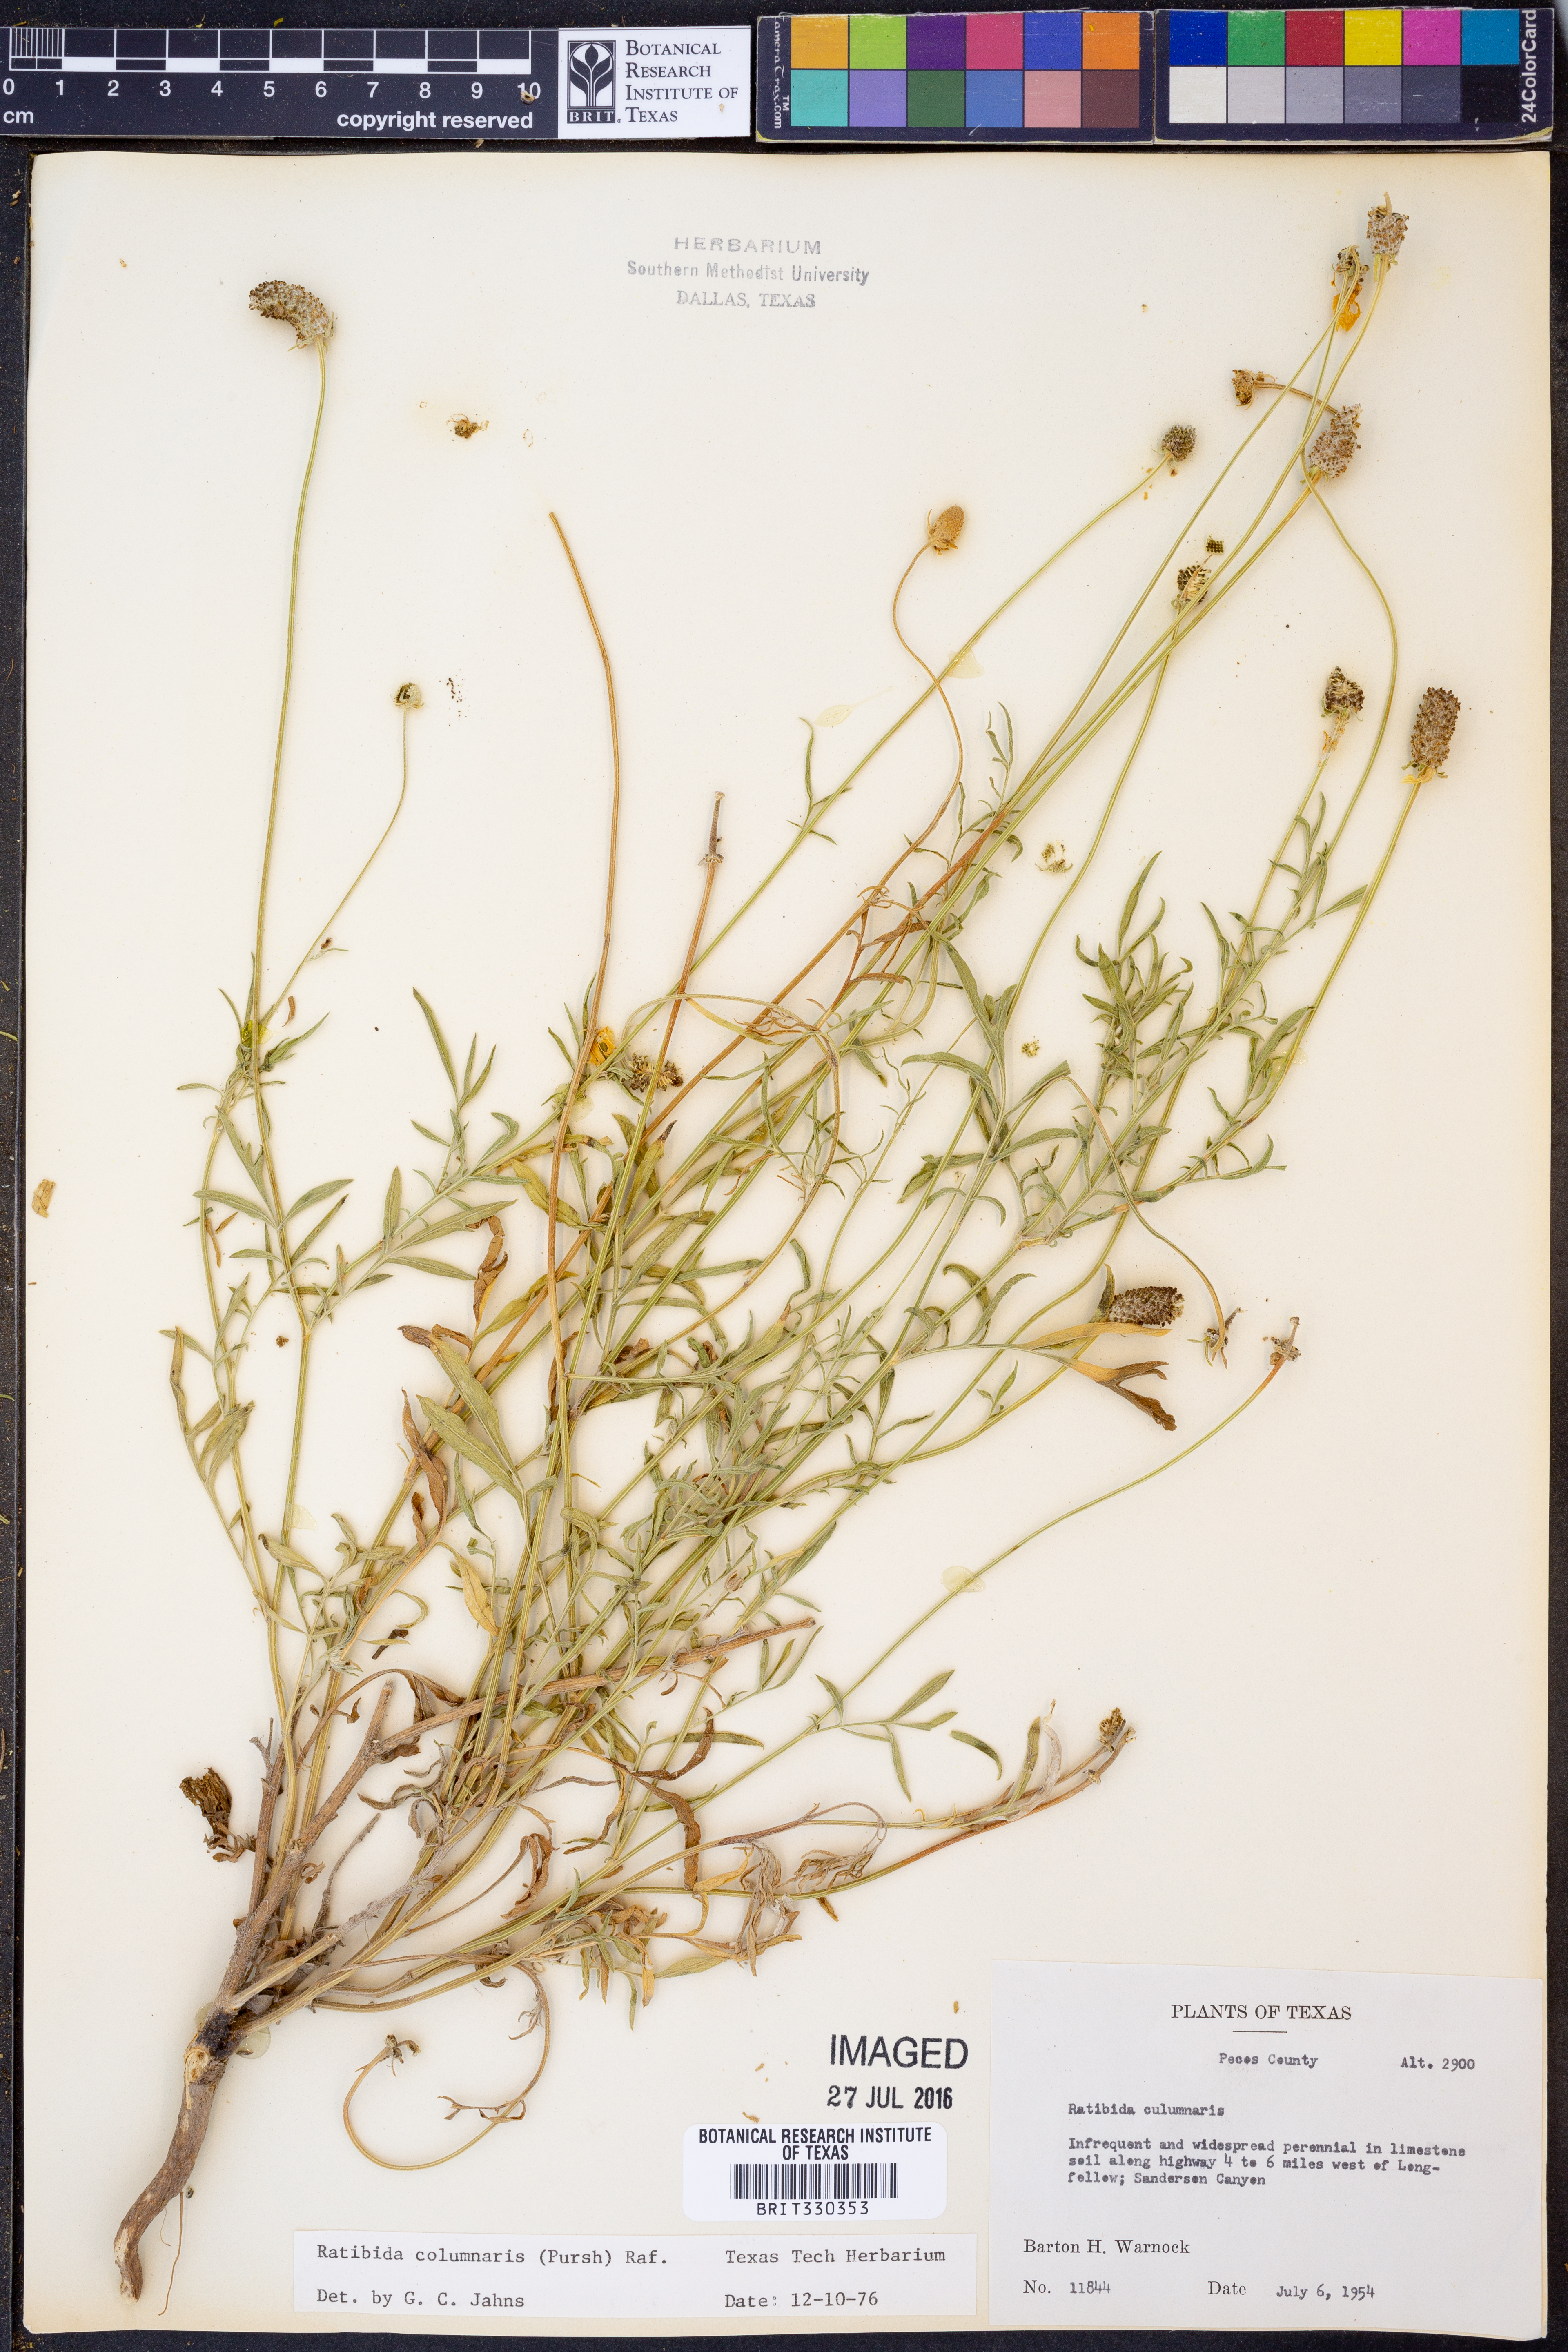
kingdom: Plantae
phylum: Tracheophyta
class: Magnoliopsida
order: Asterales
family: Asteraceae
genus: Ratibida
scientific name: Ratibida columnifera
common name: Prairie coneflower
